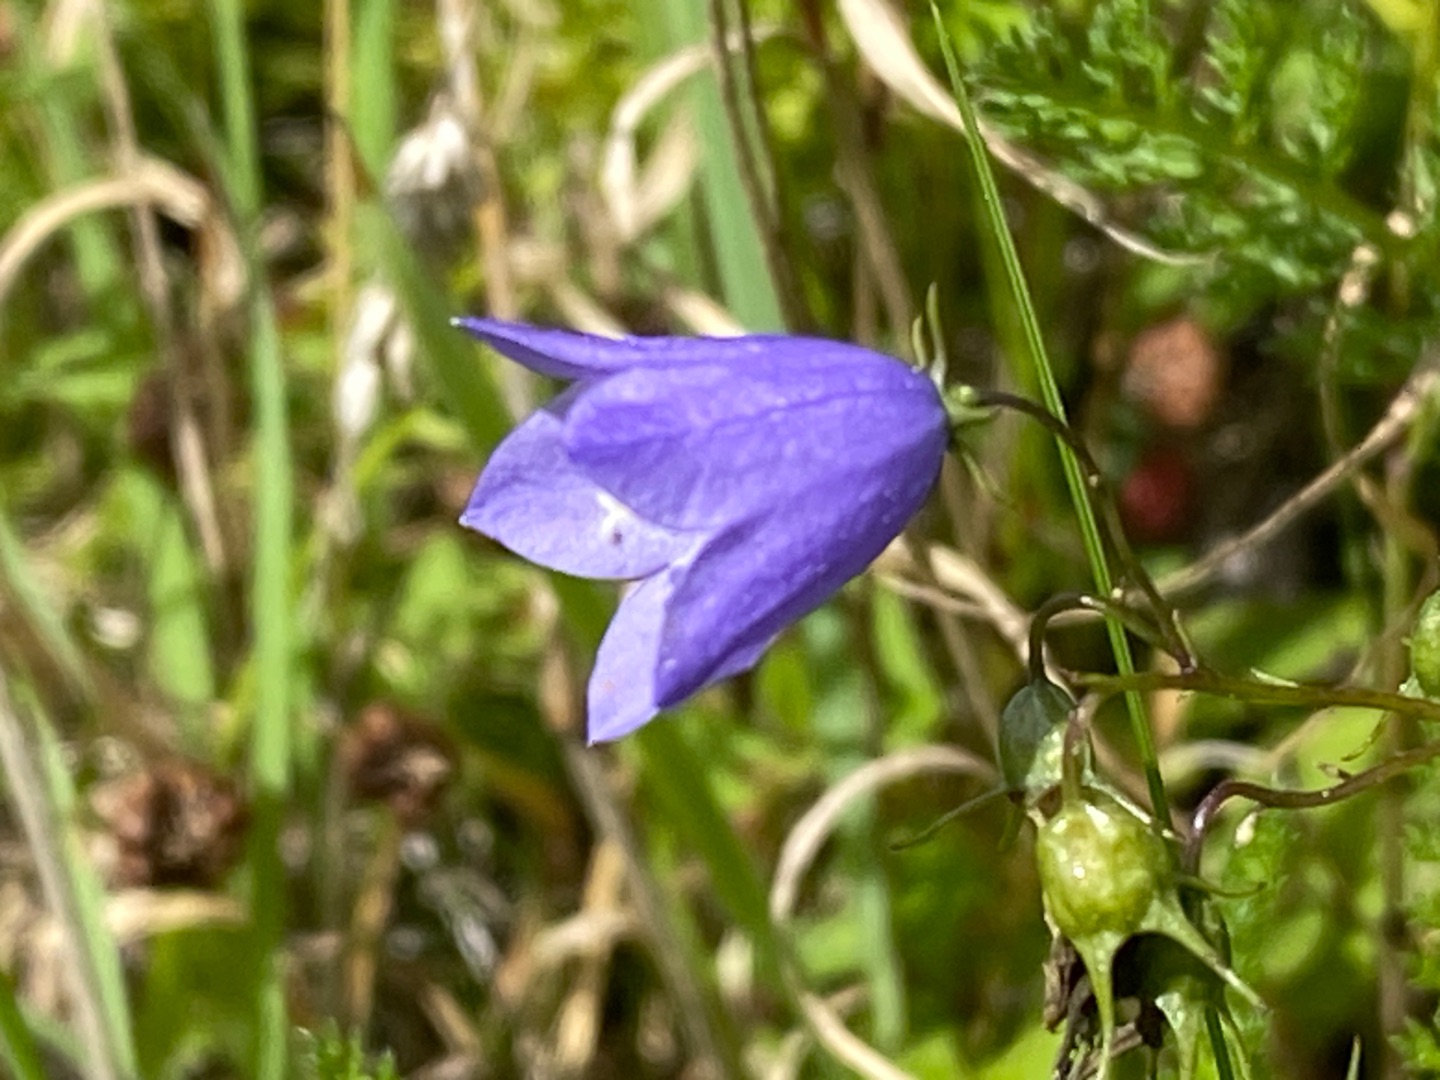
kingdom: Plantae
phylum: Tracheophyta
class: Magnoliopsida
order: Asterales
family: Campanulaceae
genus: Campanula
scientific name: Campanula rotundifolia
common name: Liden klokke
